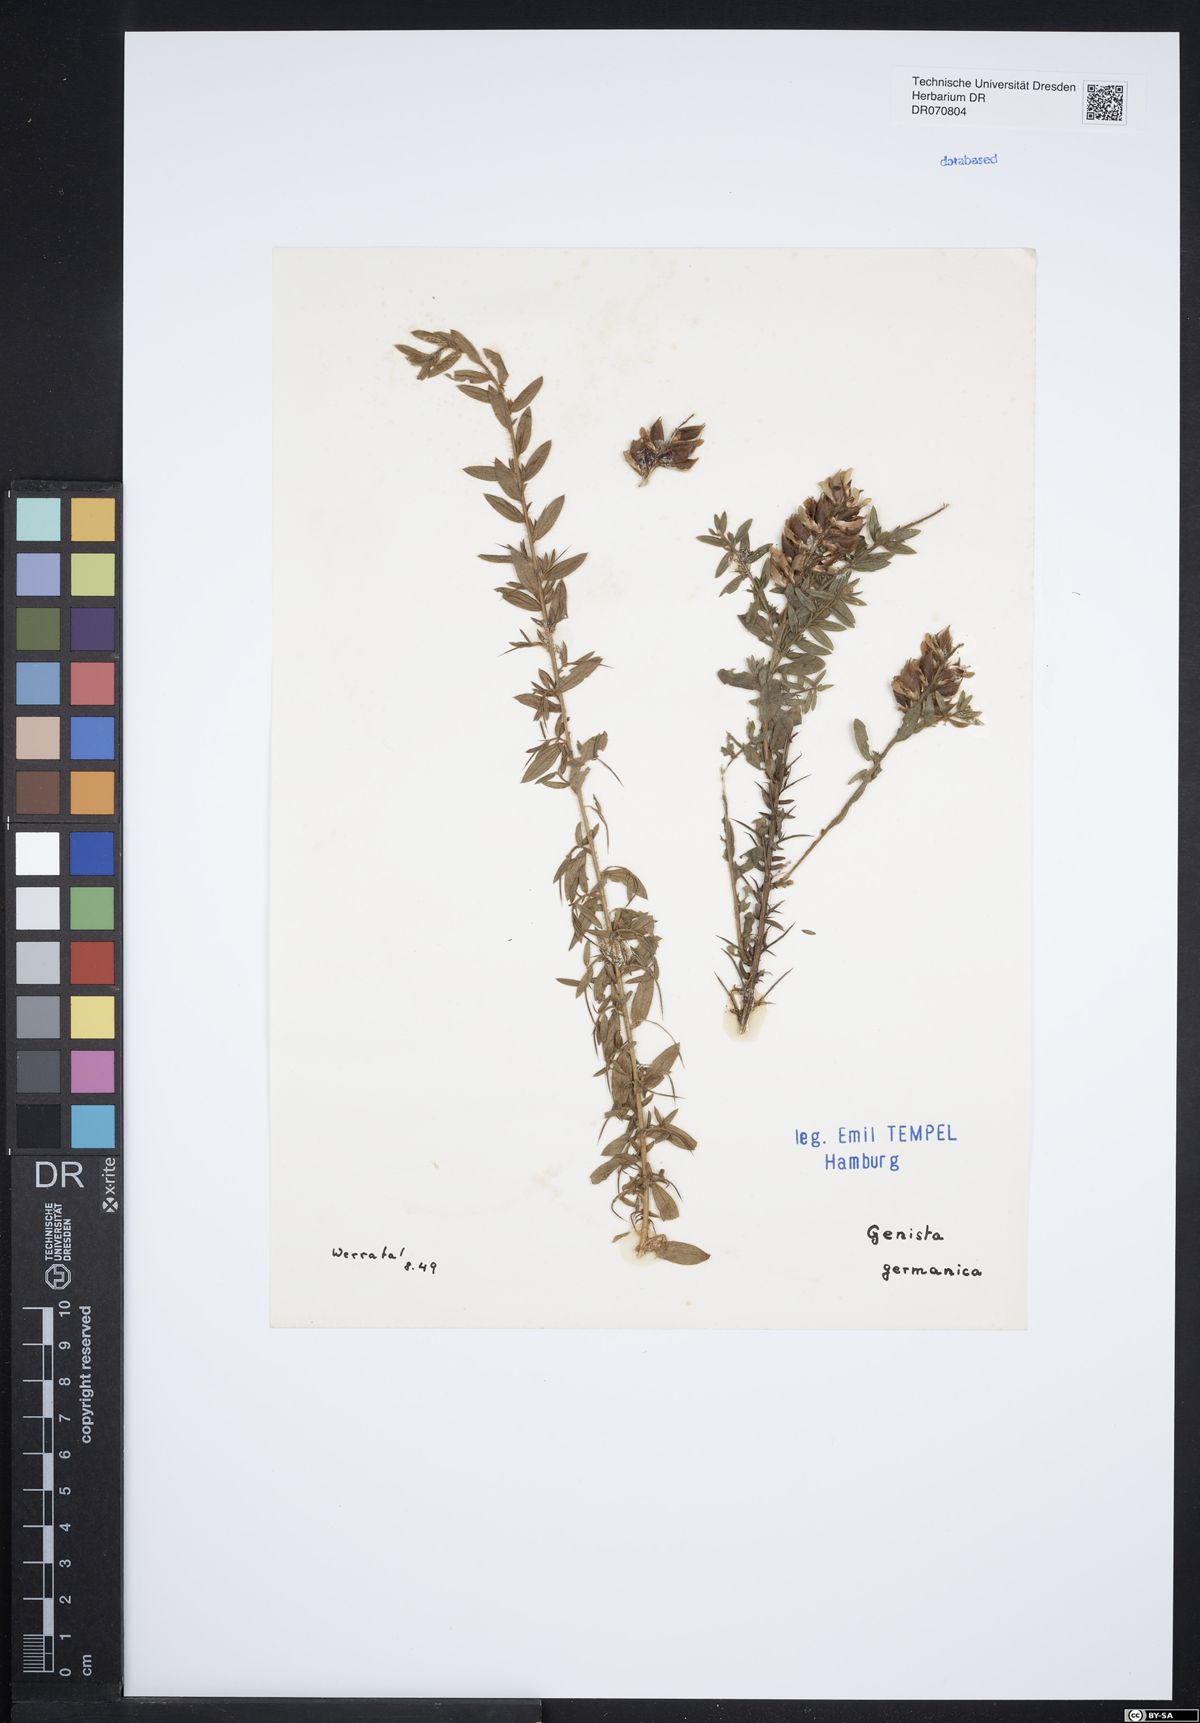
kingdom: Plantae
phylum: Tracheophyta
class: Magnoliopsida
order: Fabales
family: Fabaceae
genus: Genista
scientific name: Genista germanica
